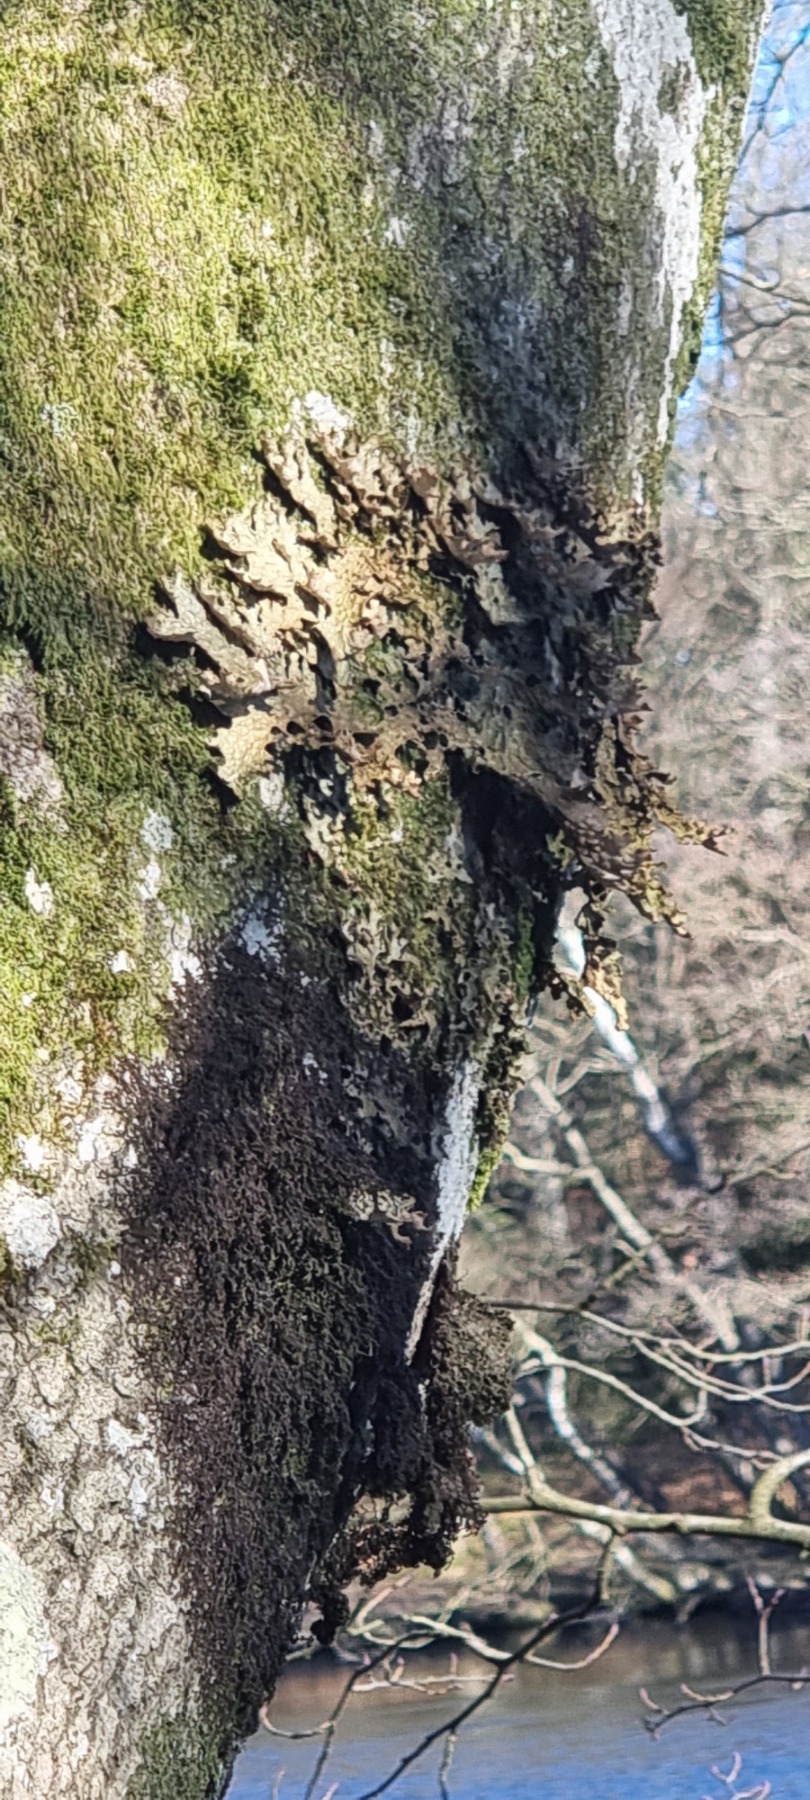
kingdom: Fungi
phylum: Ascomycota
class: Lecanoromycetes
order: Peltigerales
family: Lobariaceae
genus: Lobaria
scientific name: Lobaria pulmonaria
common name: Almindelig lungelav
